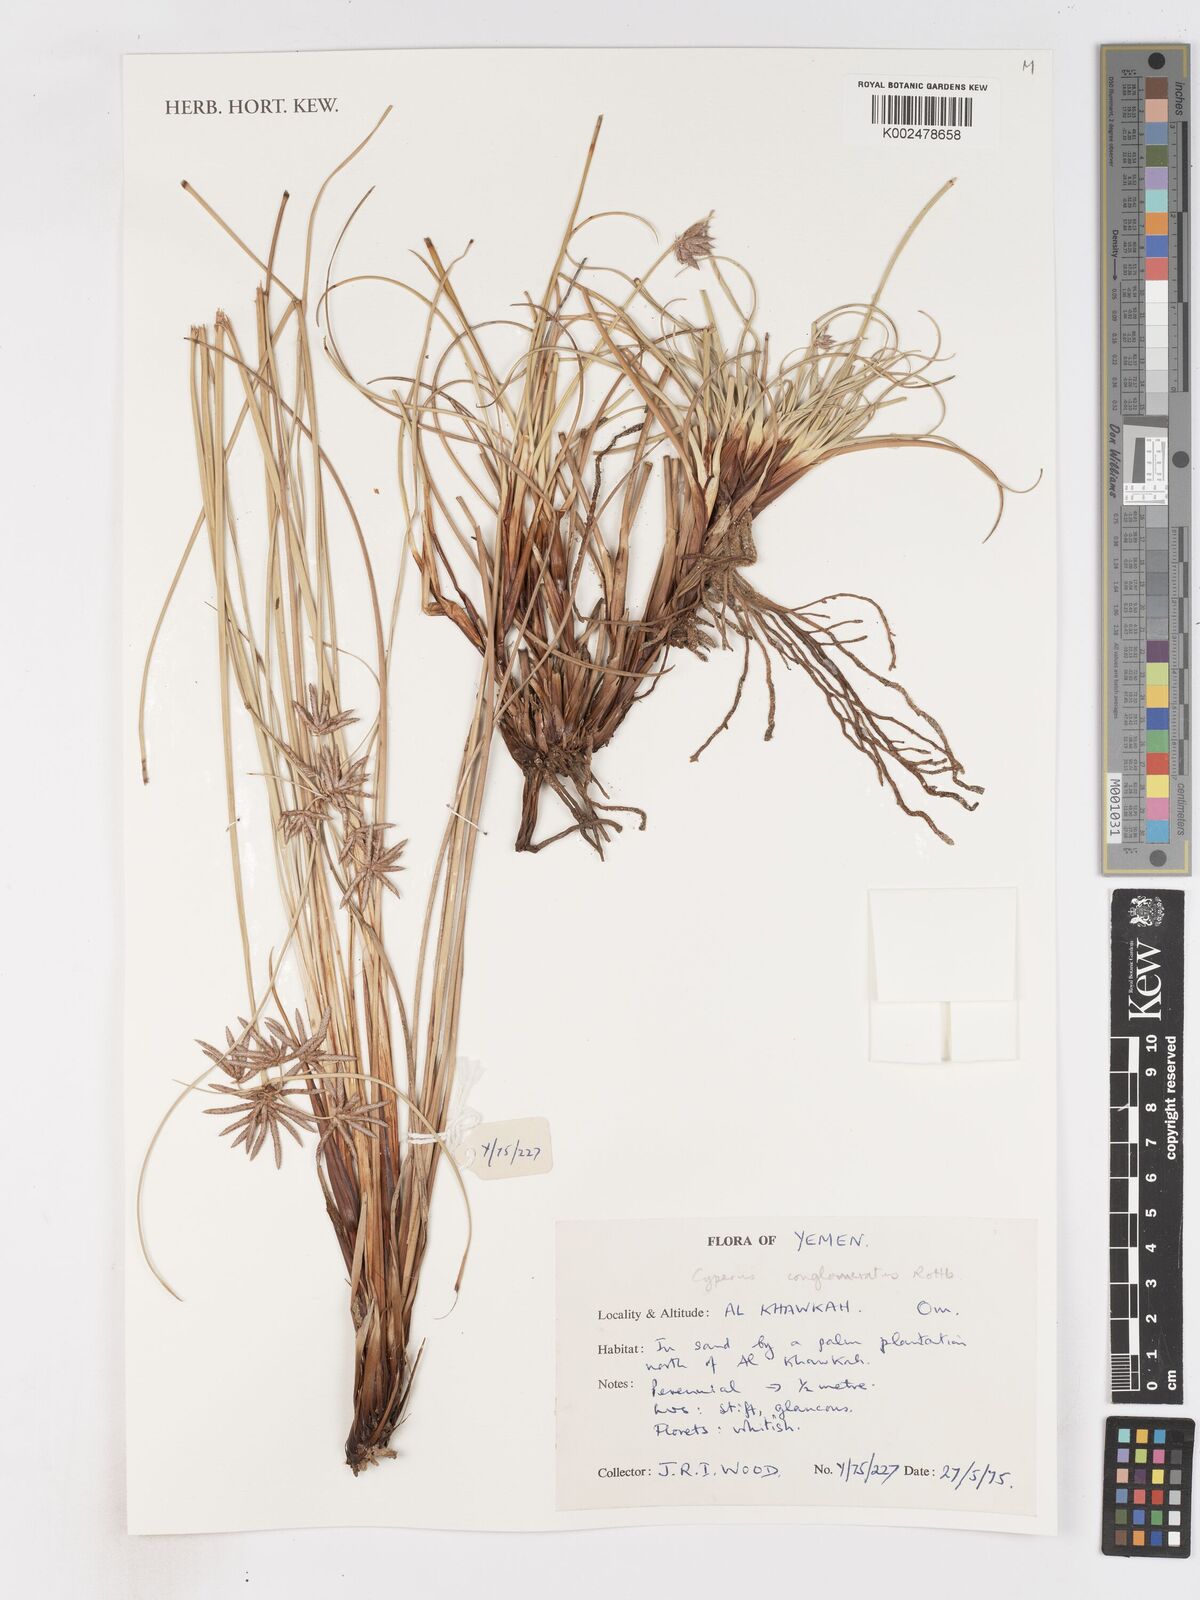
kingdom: Plantae
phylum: Tracheophyta
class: Liliopsida
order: Poales
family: Cyperaceae
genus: Cyperus
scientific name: Cyperus conglomeratus
